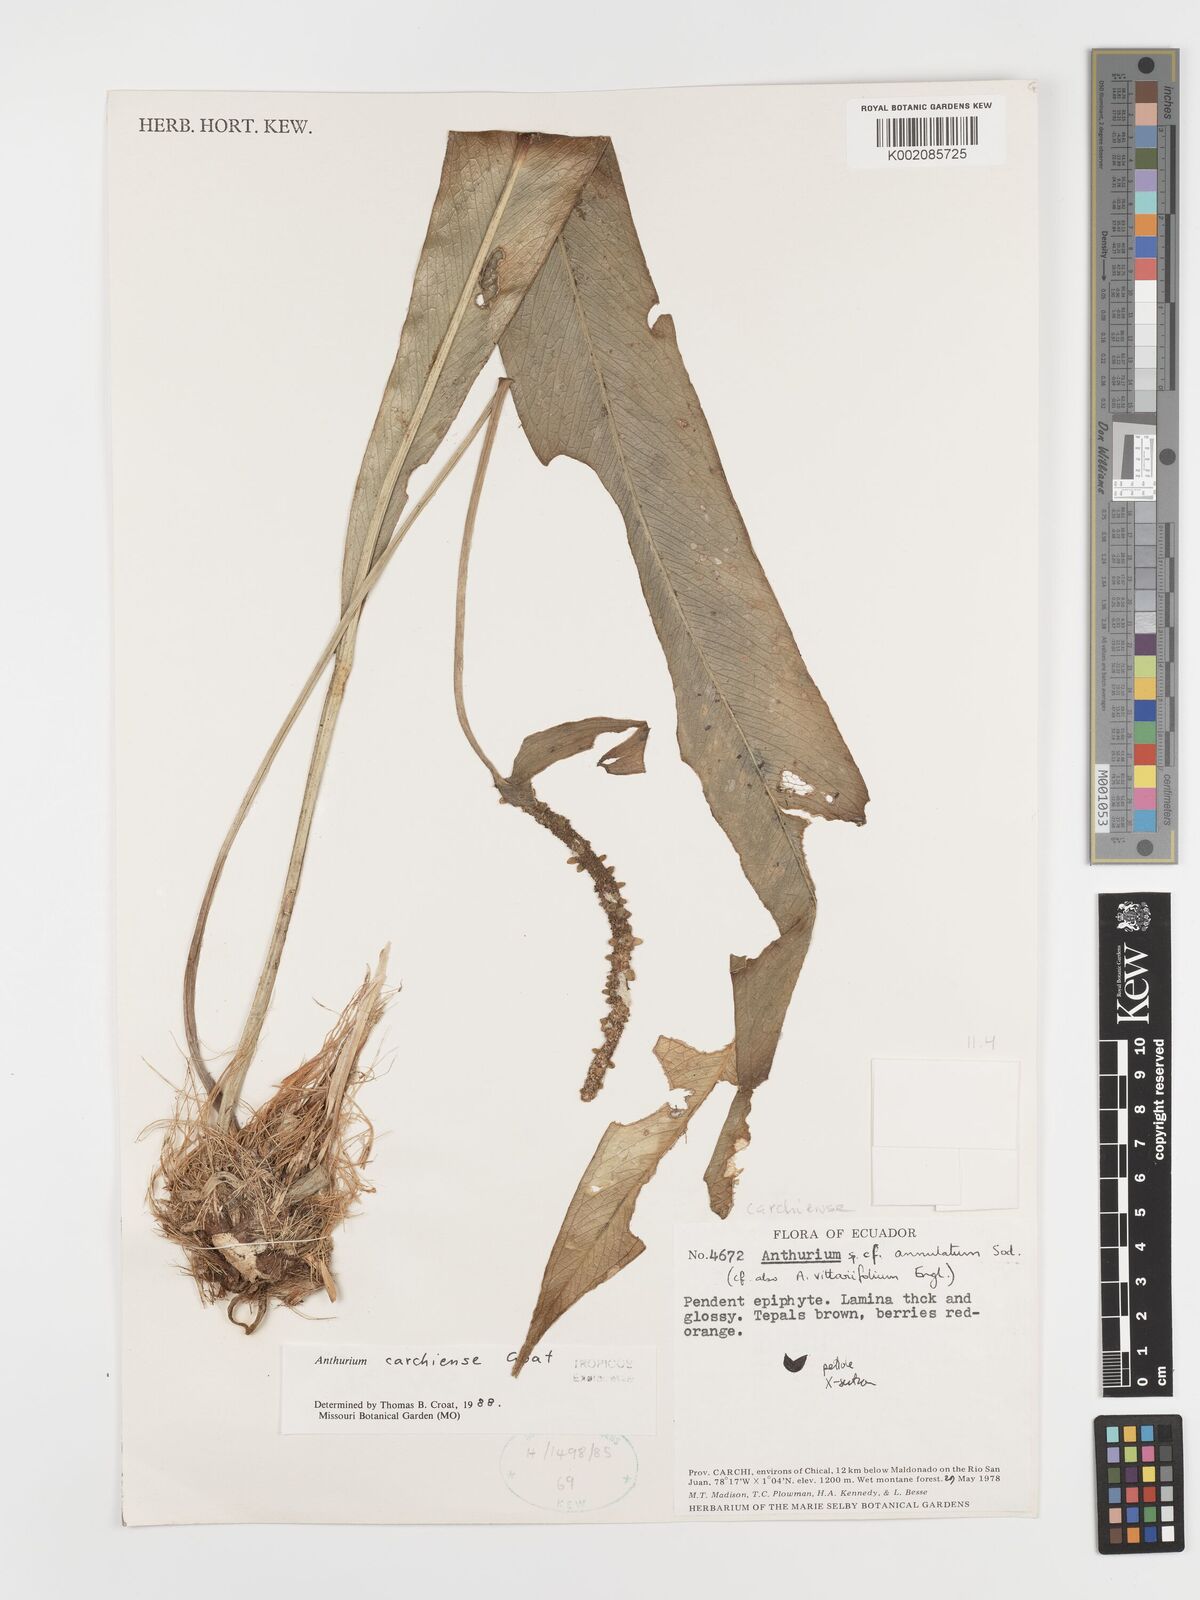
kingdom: Plantae
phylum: Tracheophyta
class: Liliopsida
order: Alismatales
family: Araceae
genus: Anthurium
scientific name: Anthurium carchiense
